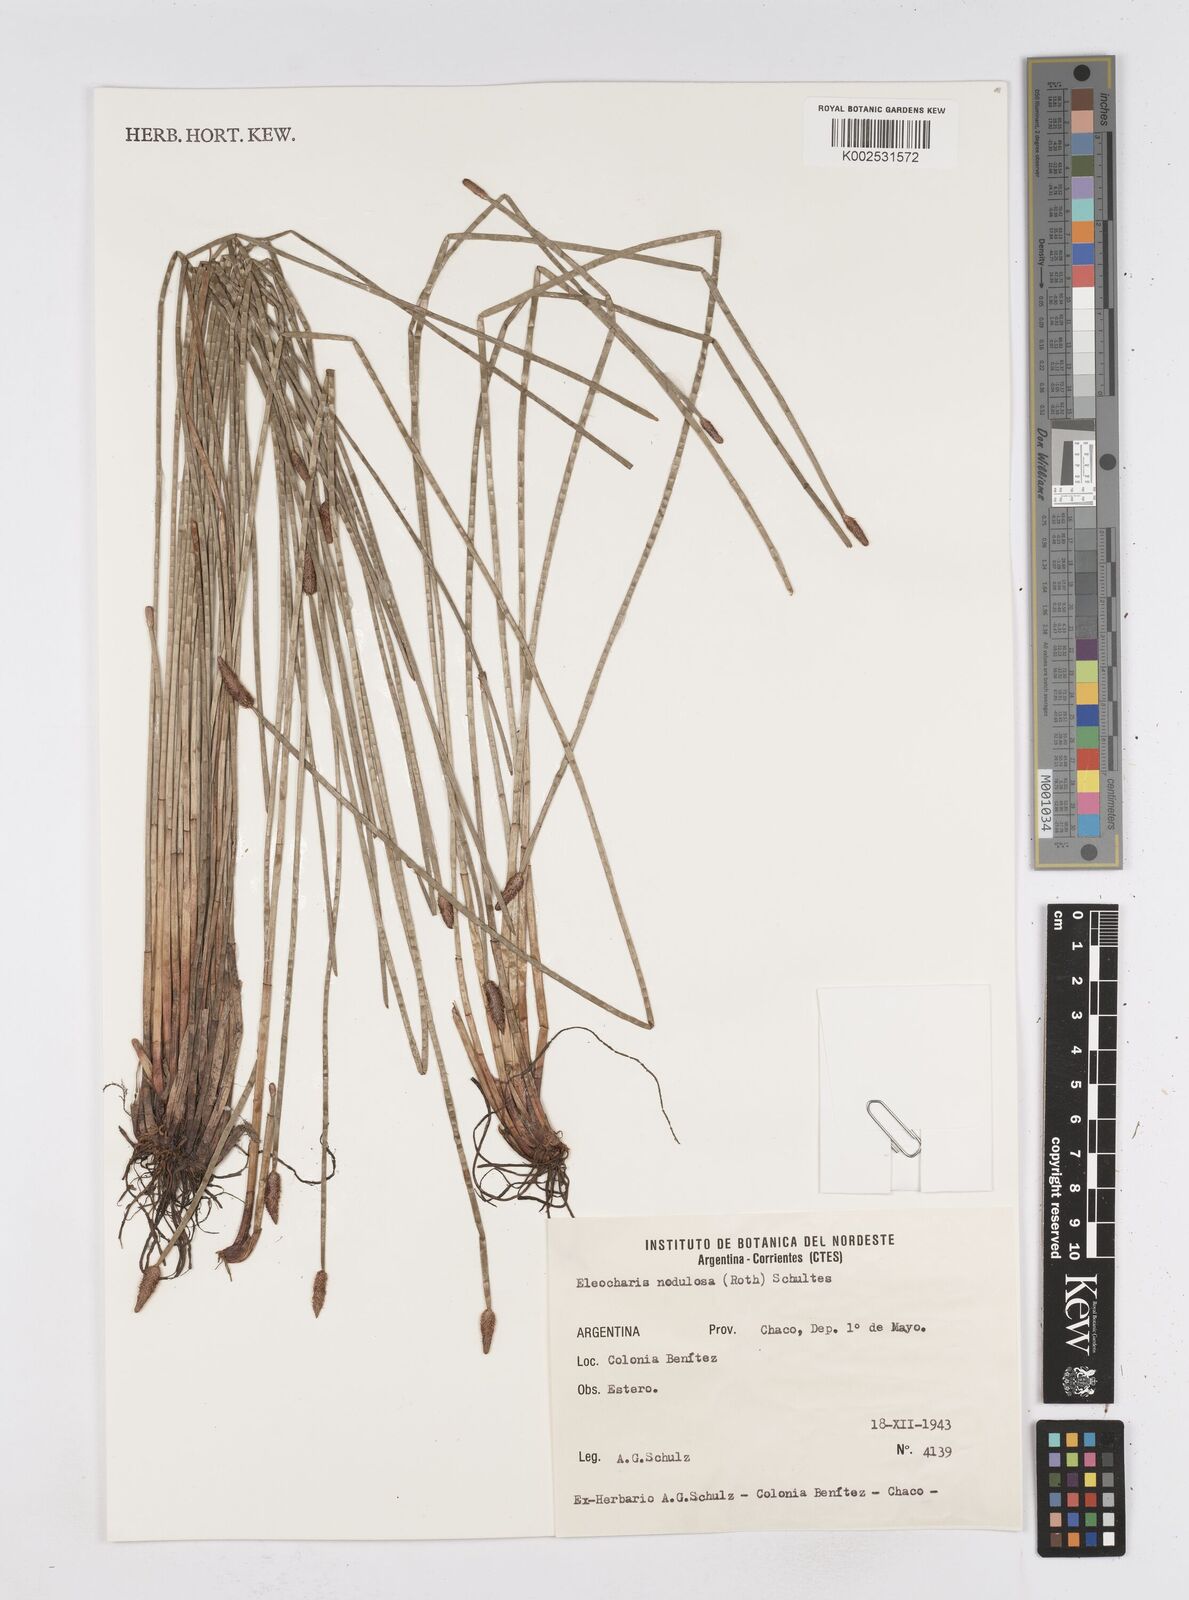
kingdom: Plantae
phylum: Tracheophyta
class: Liliopsida
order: Poales
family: Cyperaceae
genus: Eleocharis
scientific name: Eleocharis montana
